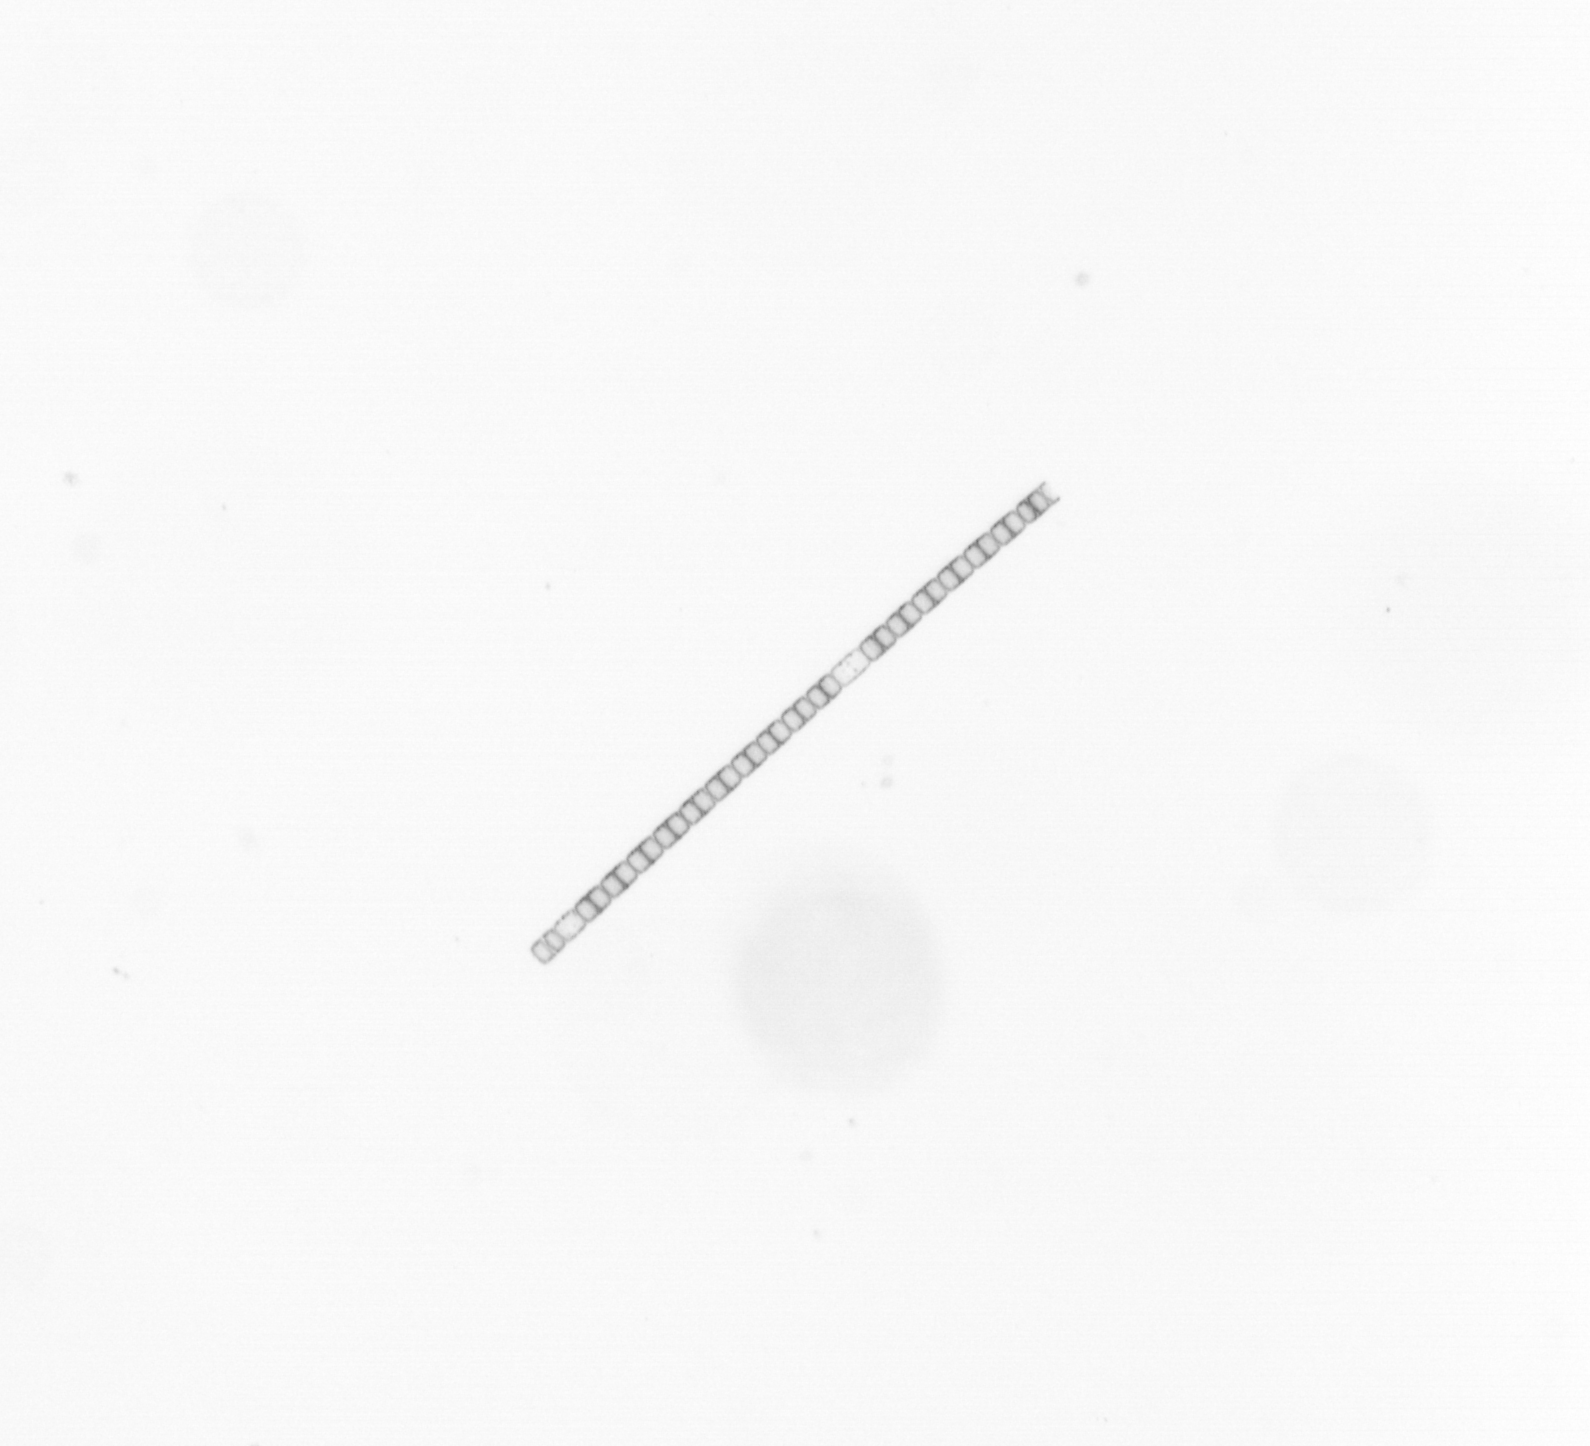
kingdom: Chromista
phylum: Ochrophyta
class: Bacillariophyceae
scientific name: Bacillariophyceae
